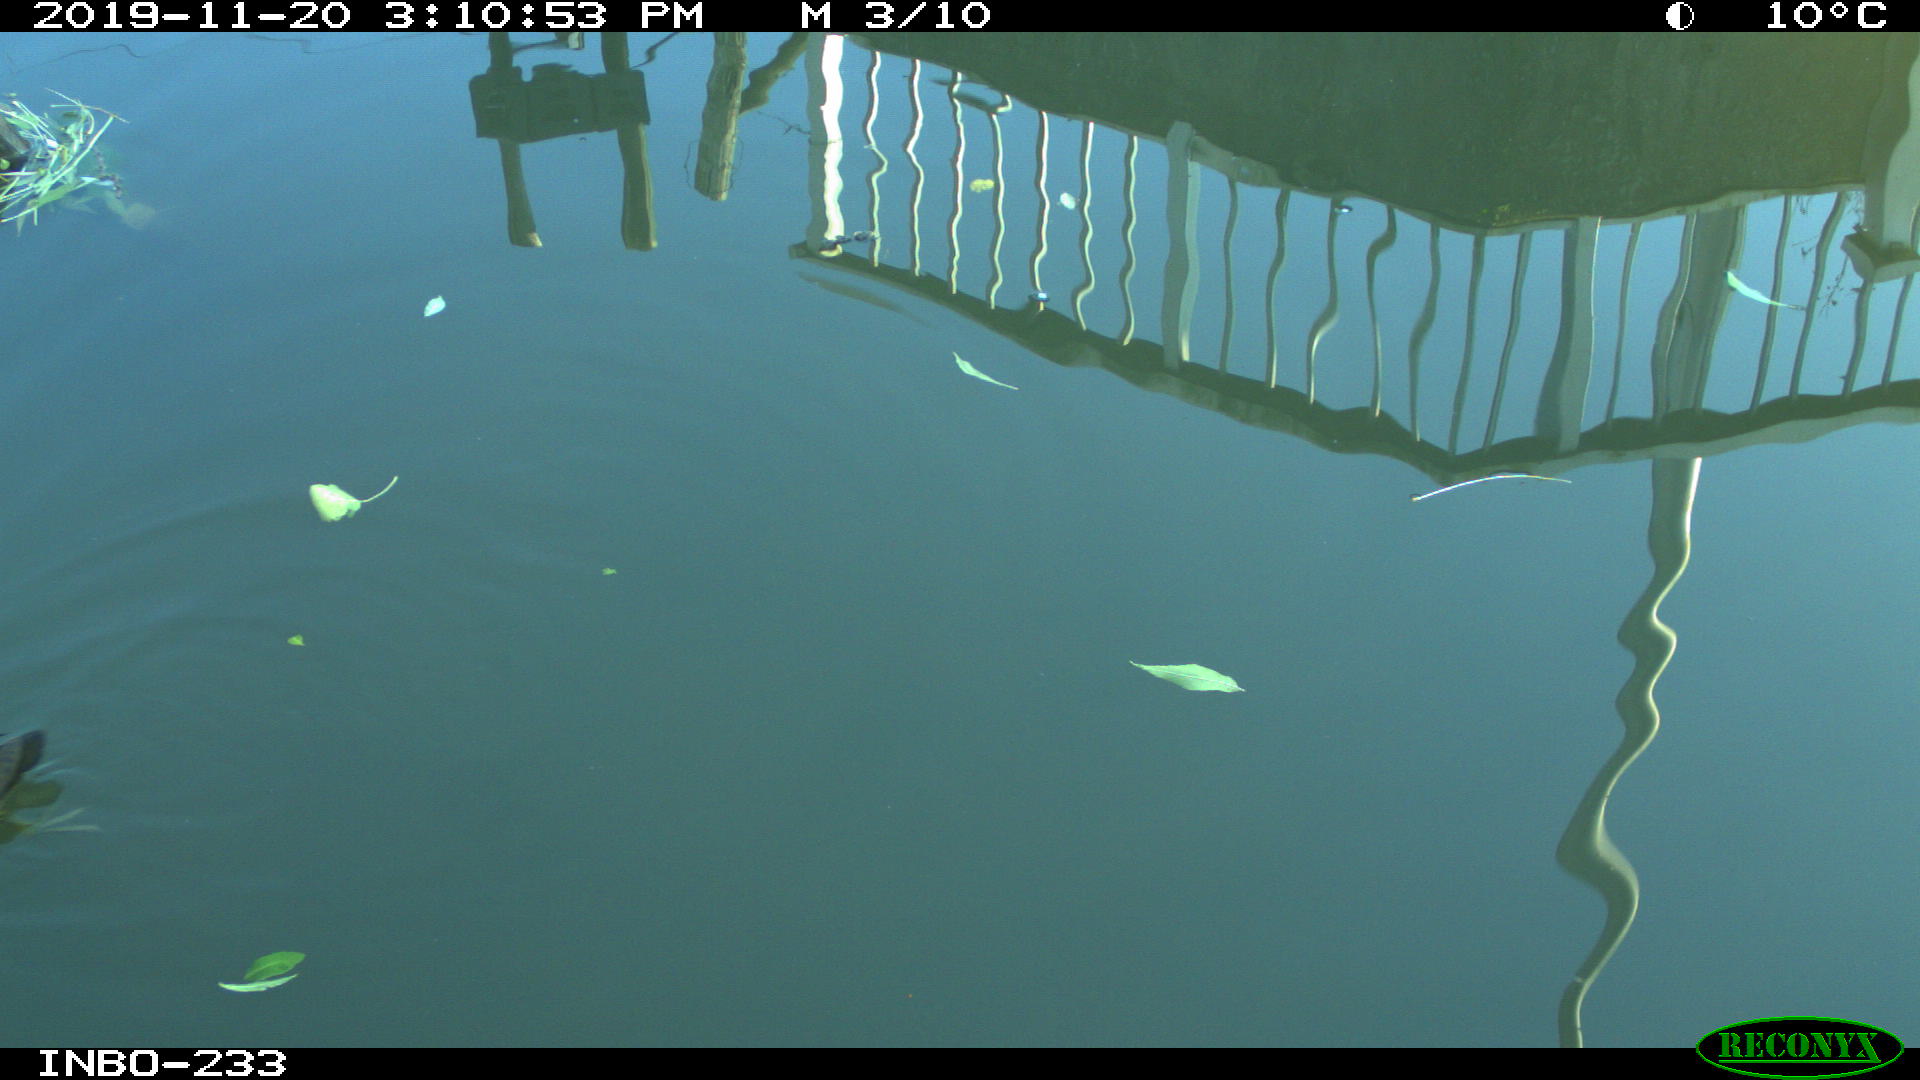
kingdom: Animalia
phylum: Chordata
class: Aves
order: Gruiformes
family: Rallidae
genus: Gallinula
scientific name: Gallinula chloropus
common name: Common moorhen
